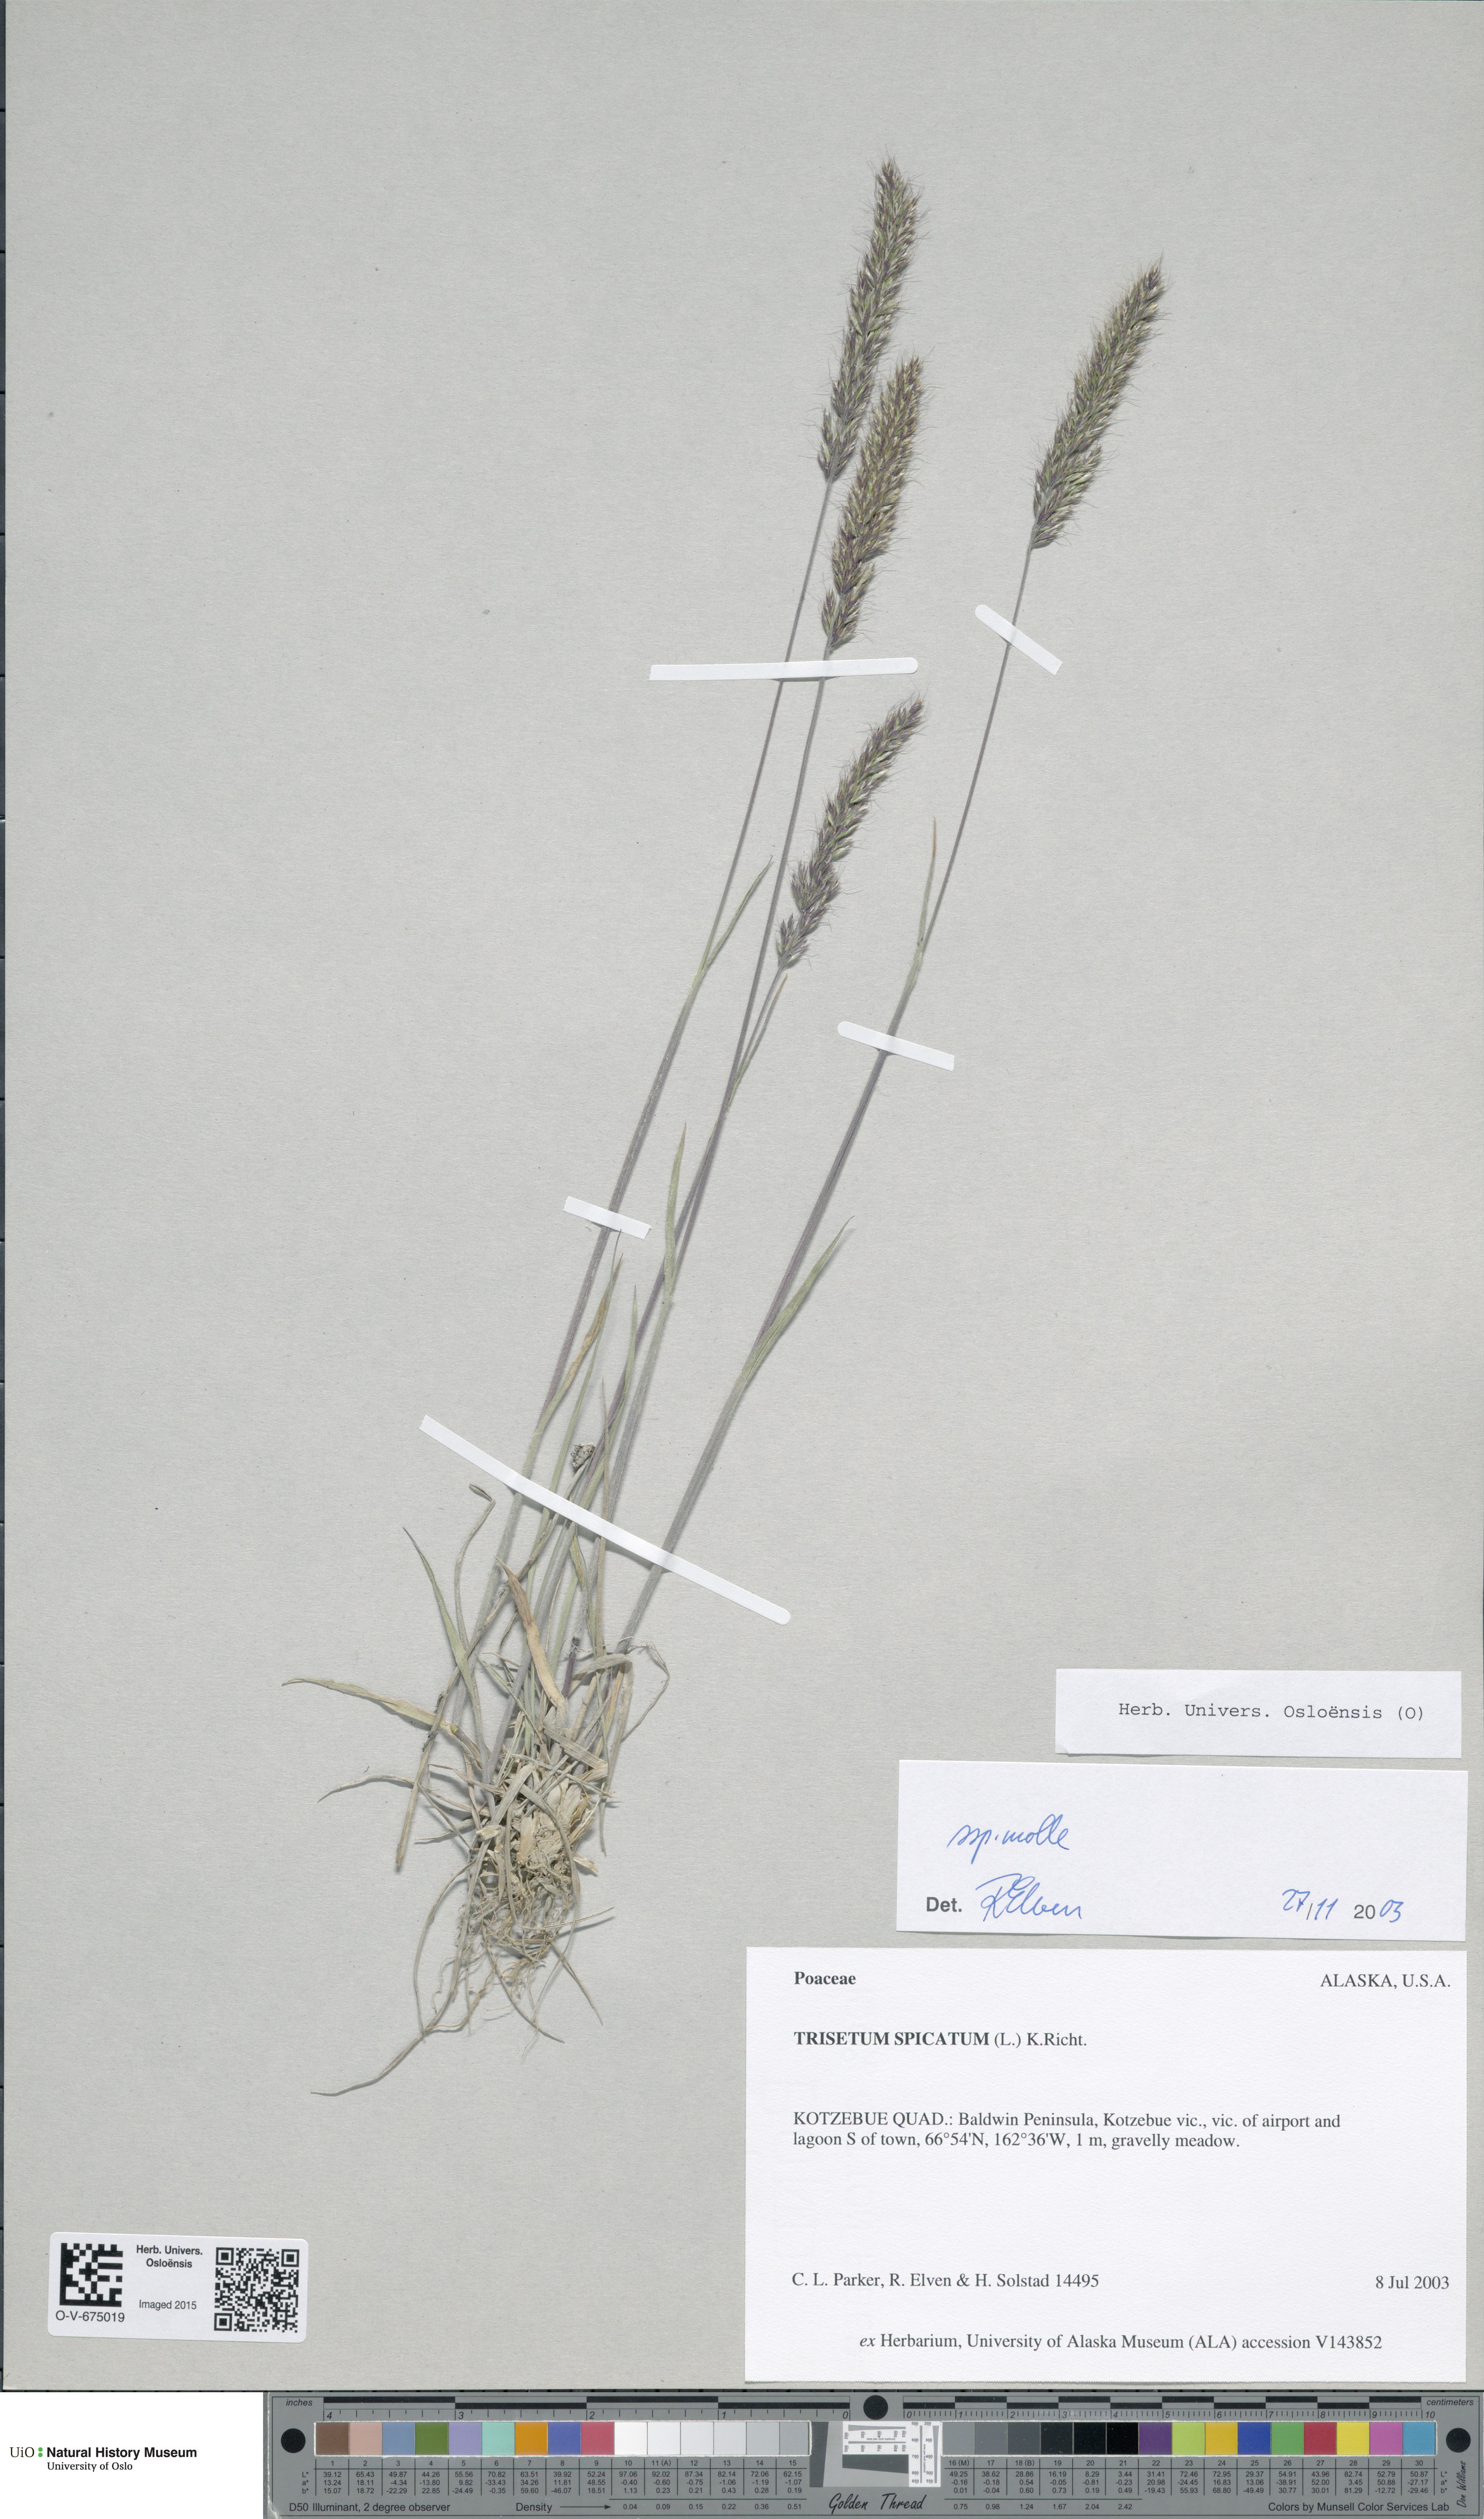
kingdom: Plantae
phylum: Tracheophyta
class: Liliopsida
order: Poales
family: Poaceae
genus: Koeleria
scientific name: Koeleria spicata
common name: Mountain trisetum
